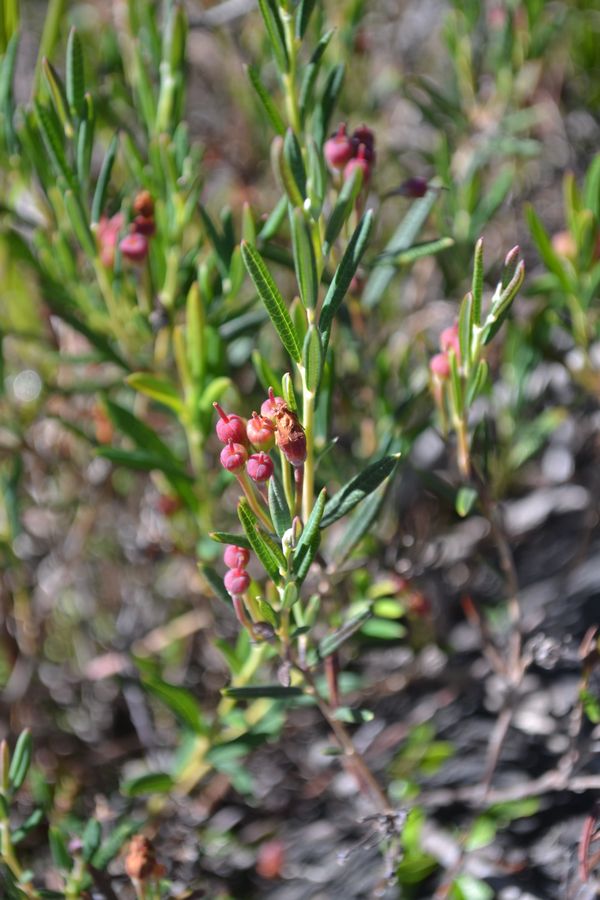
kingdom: Plantae
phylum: Tracheophyta
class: Magnoliopsida
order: Ericales
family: Ericaceae
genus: Andromeda
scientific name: Andromeda polifolia
